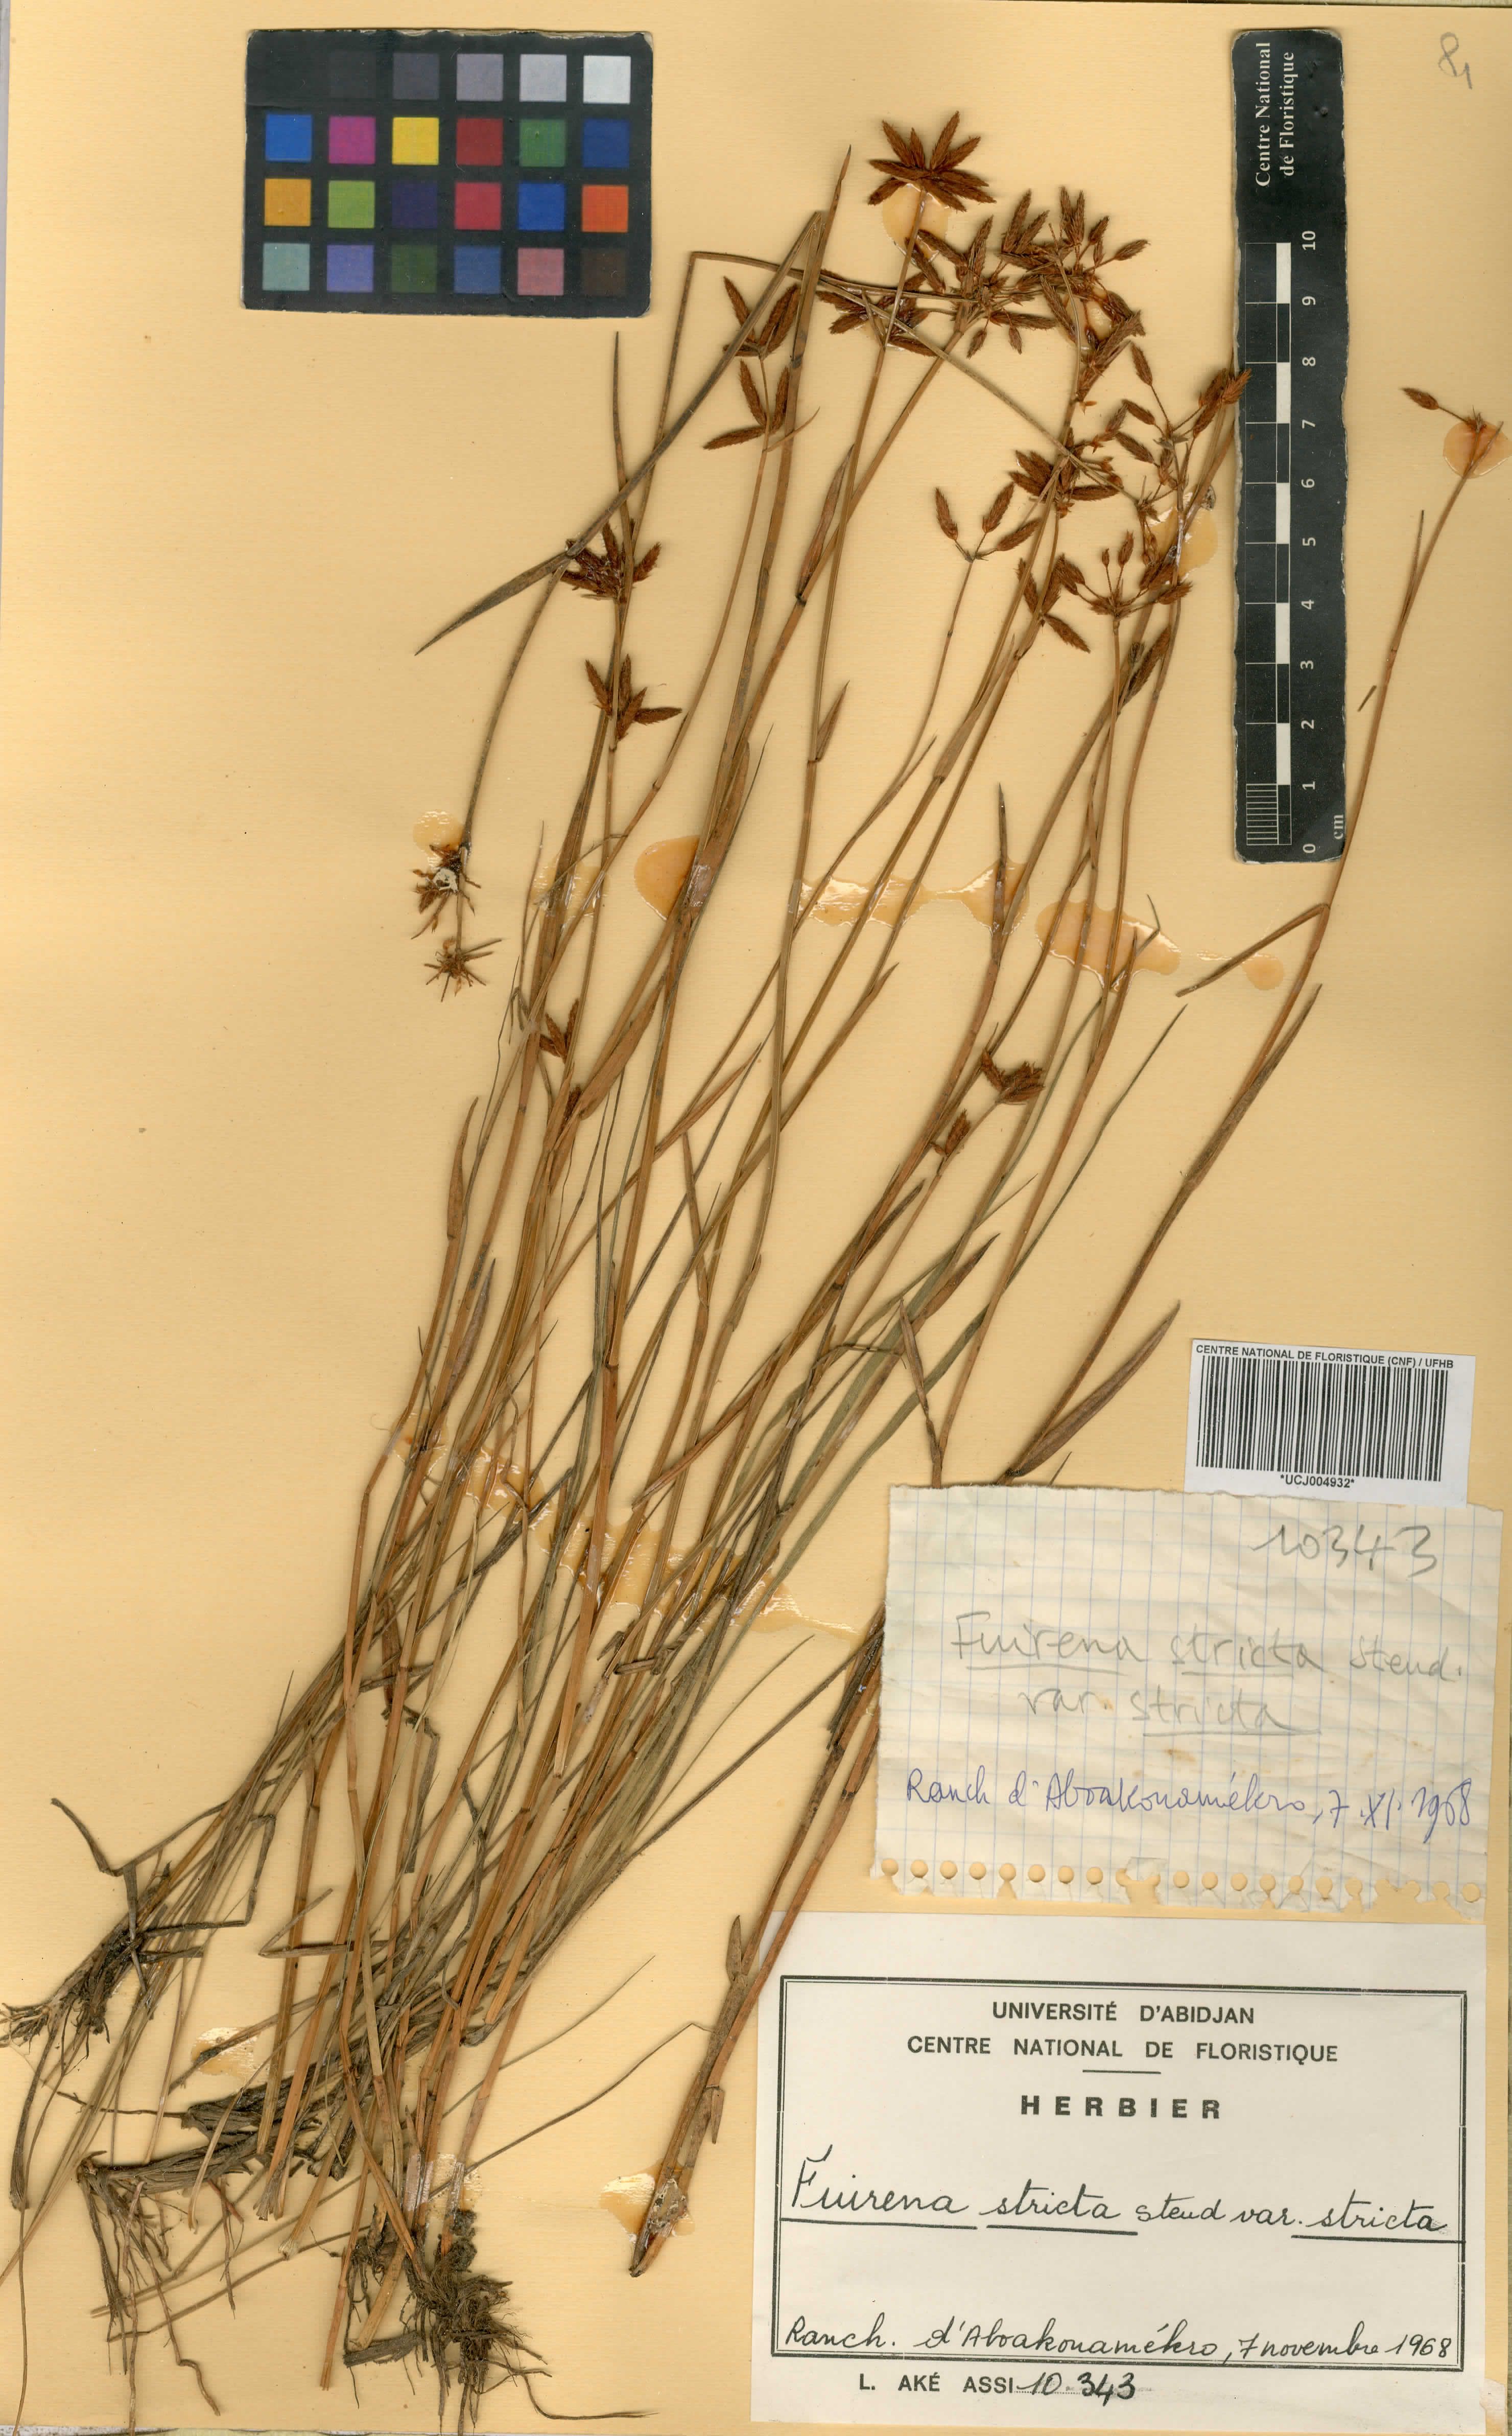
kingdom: Plantae
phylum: Tracheophyta
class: Liliopsida
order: Poales
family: Cyperaceae
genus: Fuirena
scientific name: Fuirena stricta
